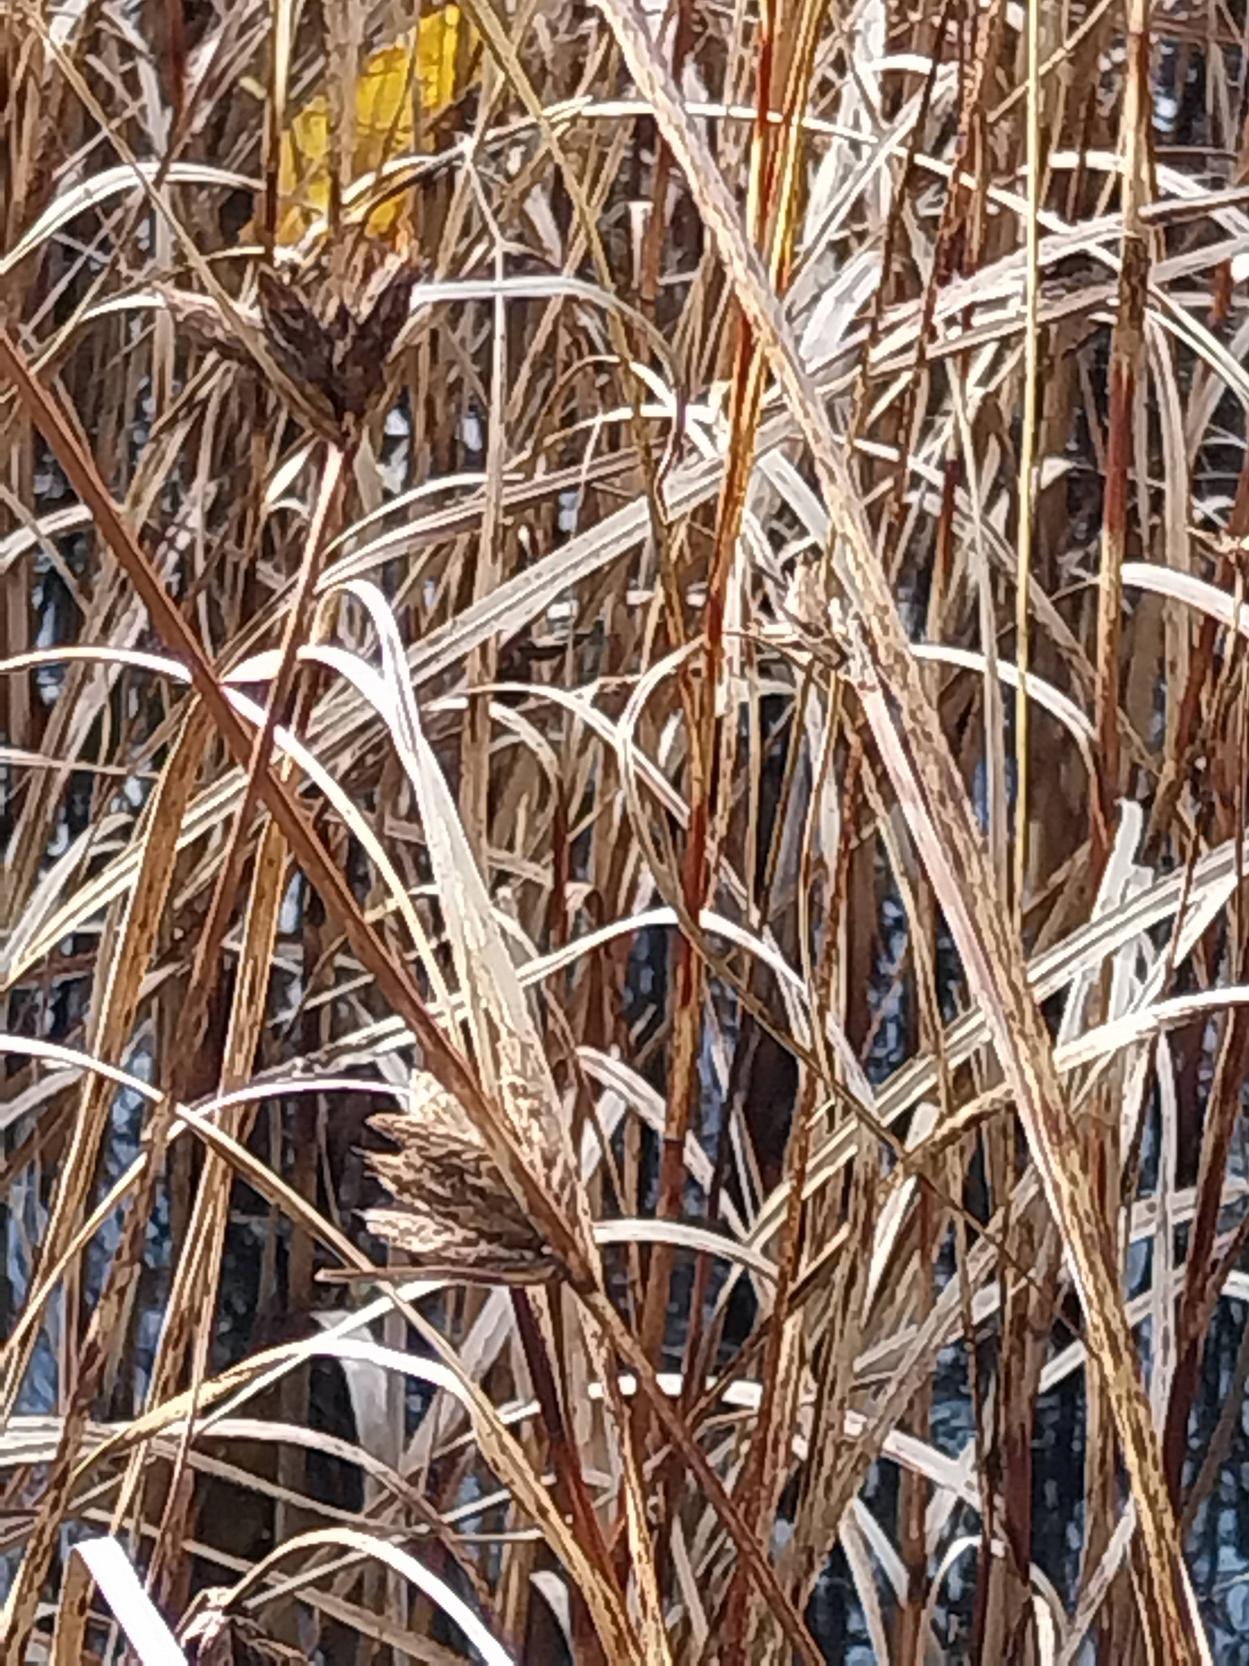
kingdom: Plantae
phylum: Tracheophyta
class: Liliopsida
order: Poales
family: Cyperaceae
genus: Bolboschoenus
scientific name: Bolboschoenus maritimus
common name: Strand-kogleaks
